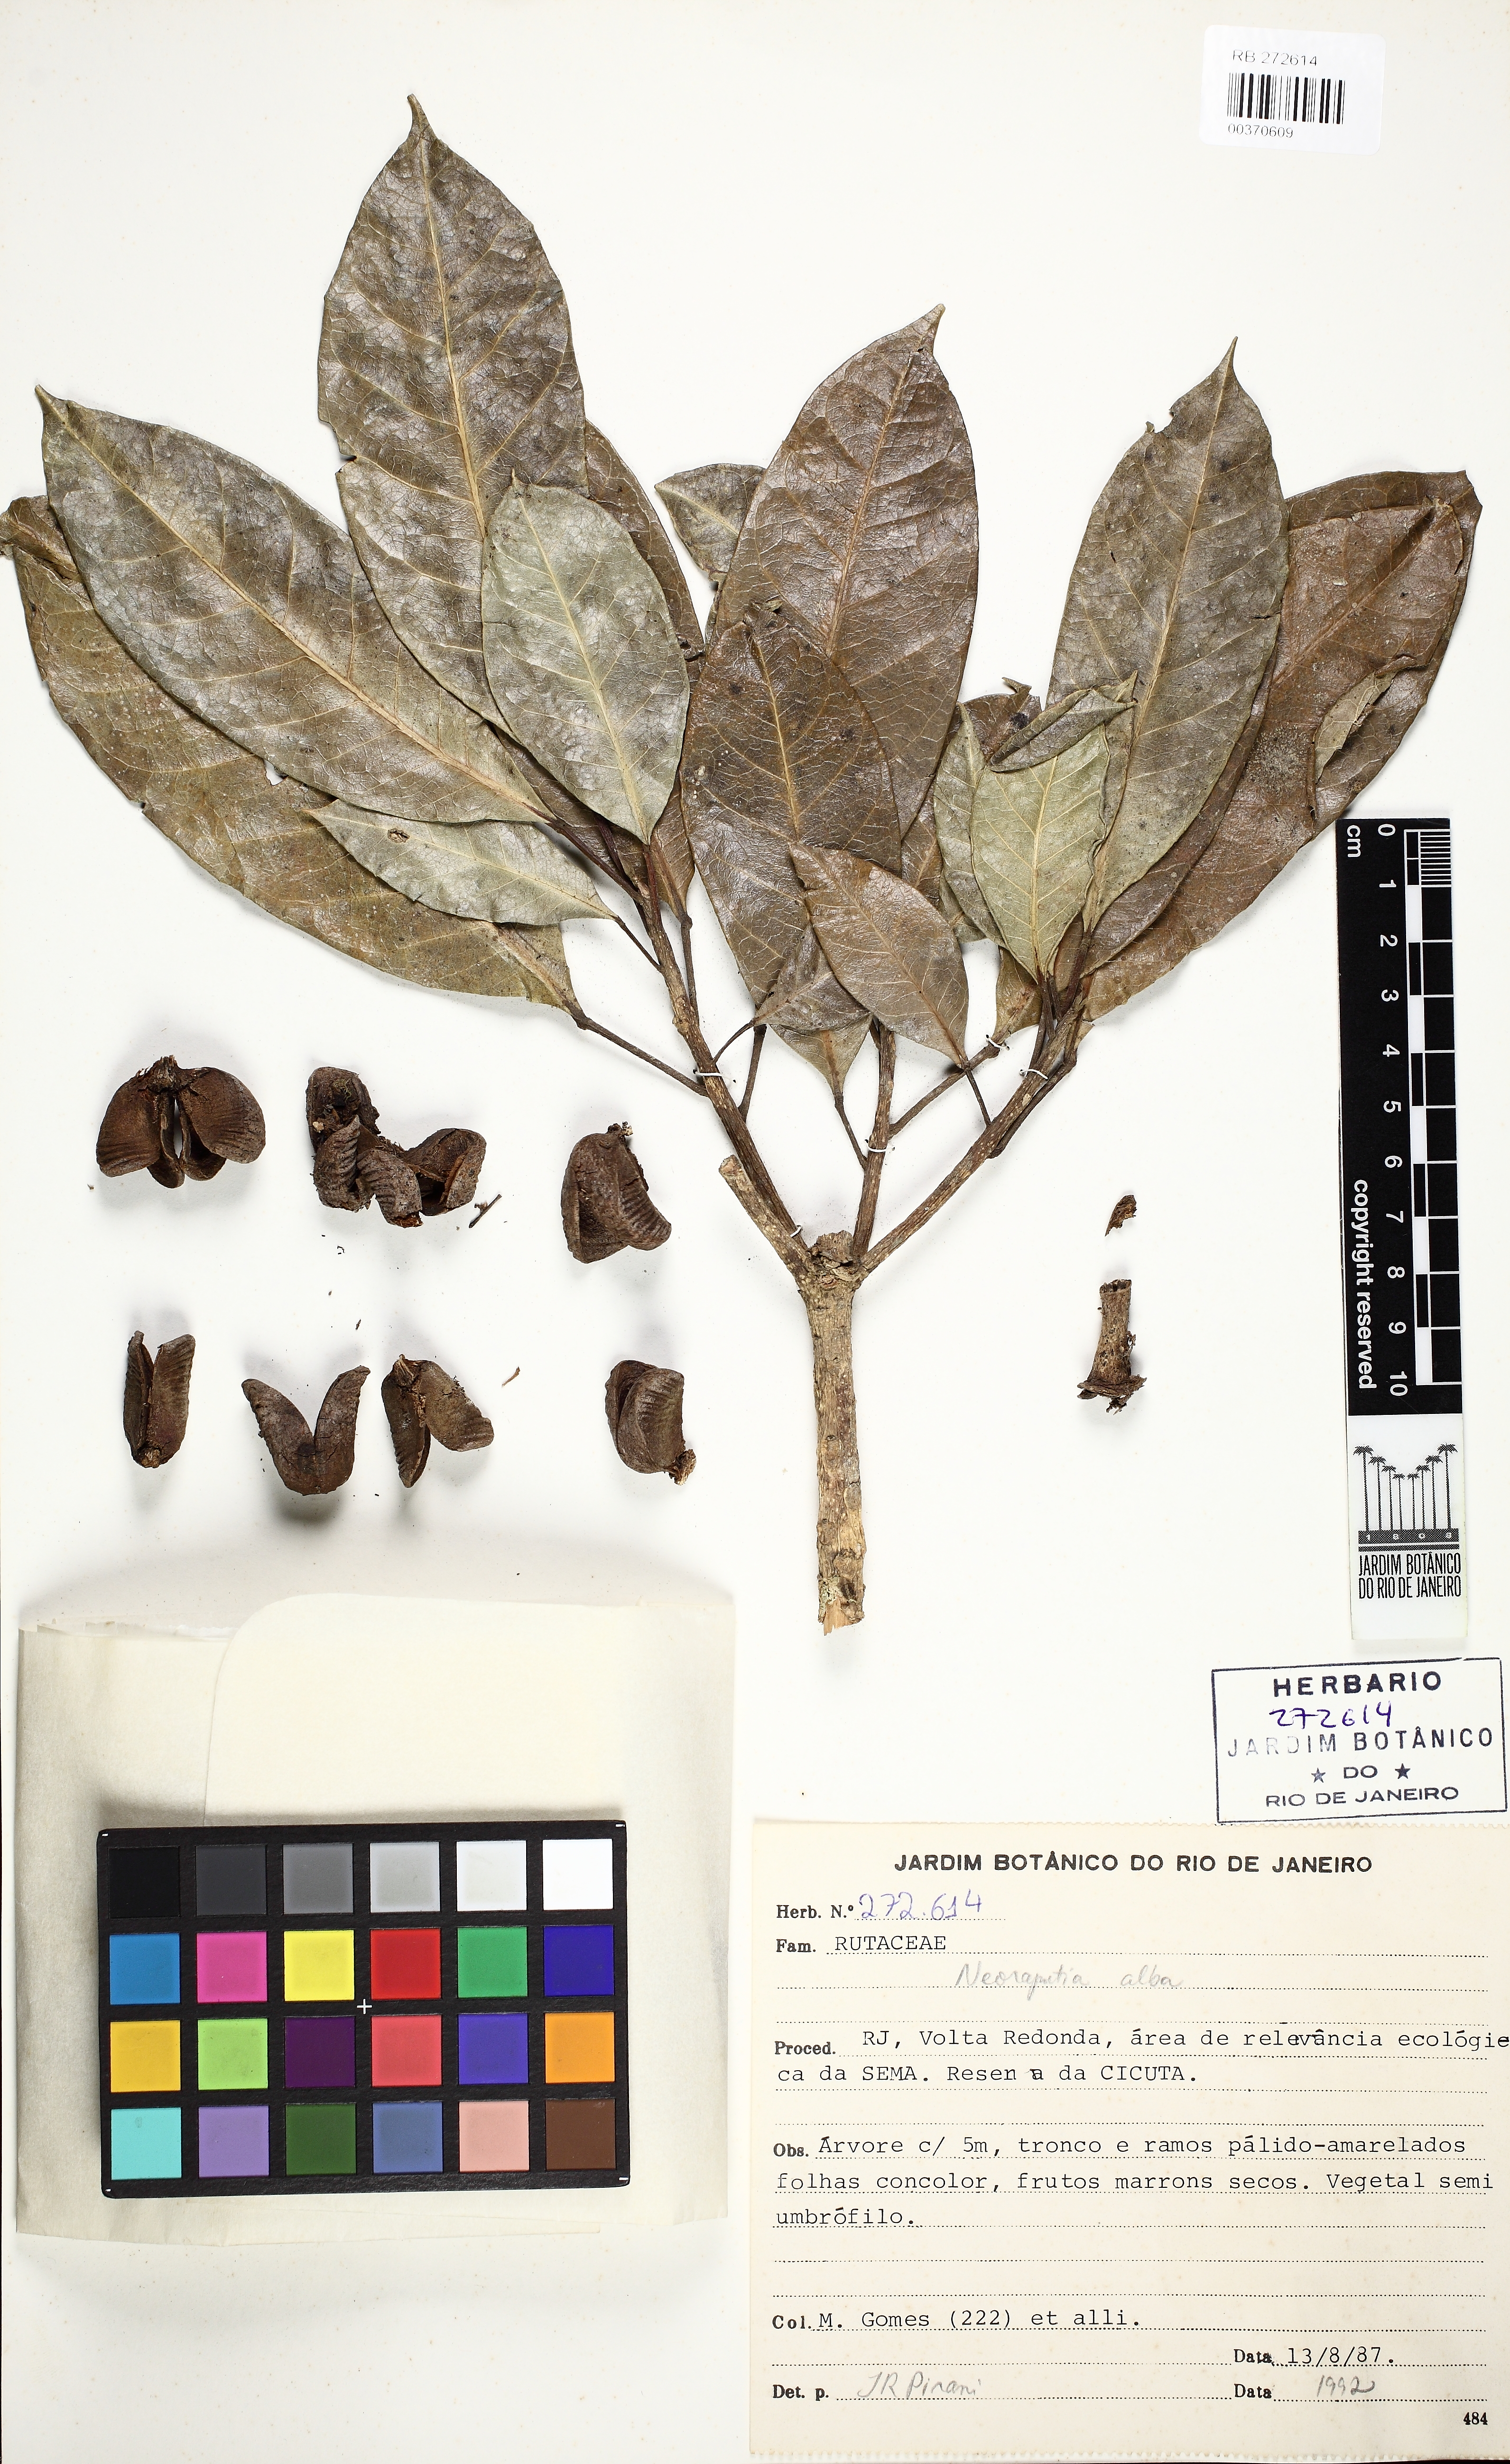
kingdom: Plantae
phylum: Tracheophyta
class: Magnoliopsida
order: Sapindales
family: Rutaceae
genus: Neoraputia
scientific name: Neoraputia alba
